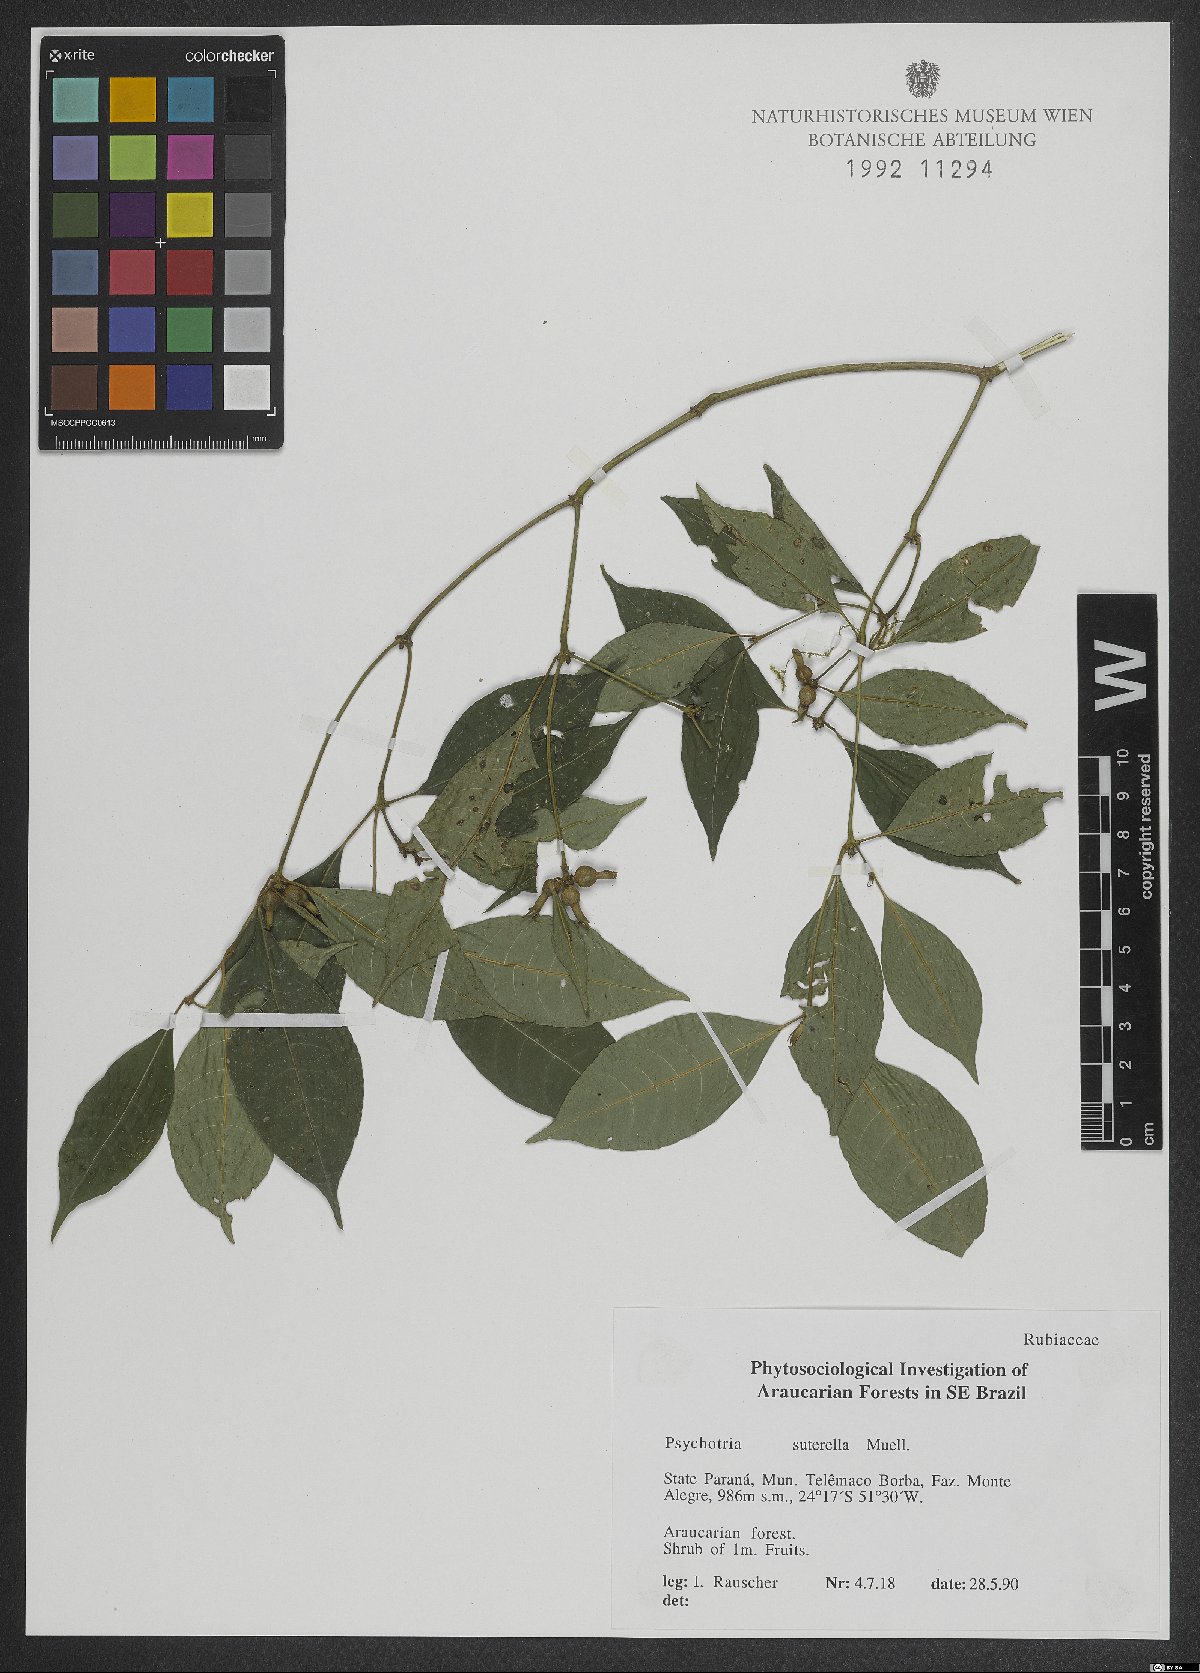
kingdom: Plantae
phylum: Tracheophyta
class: Magnoliopsida
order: Gentianales
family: Rubiaceae
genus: Psychotria
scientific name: Psychotria suterella
